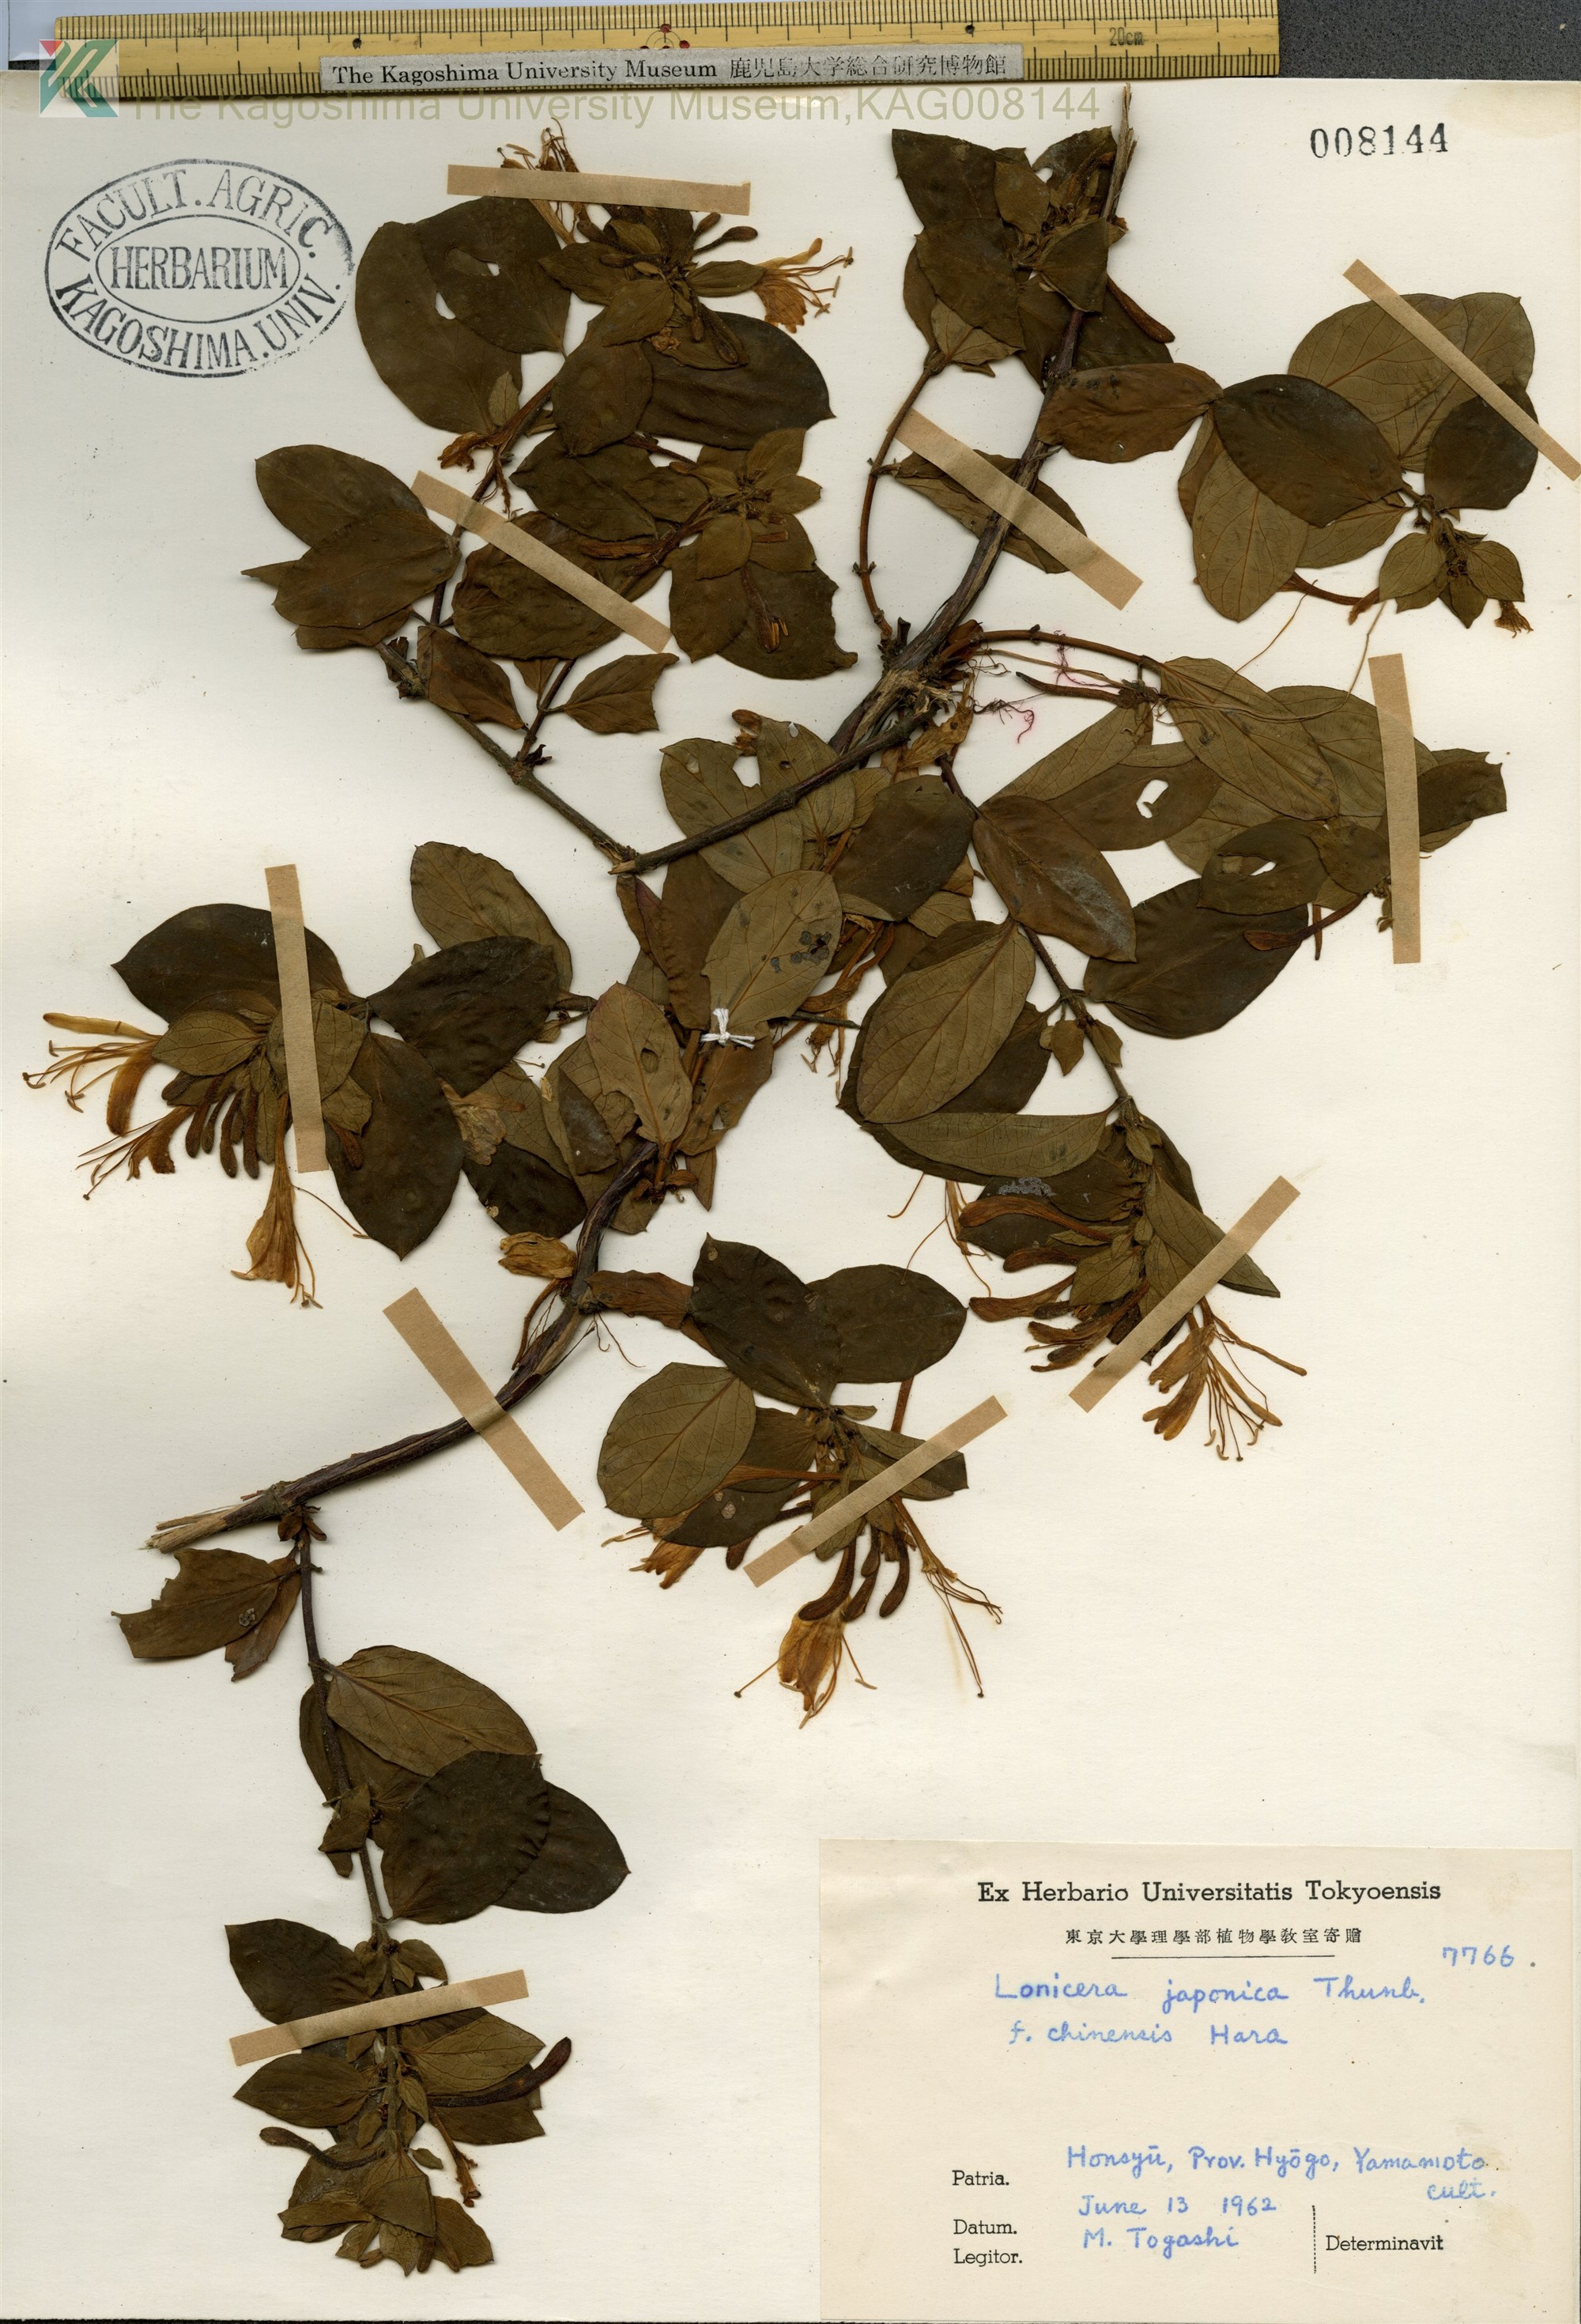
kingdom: Plantae
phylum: Tracheophyta
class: Magnoliopsida
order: Dipsacales
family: Caprifoliaceae
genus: Lonicera
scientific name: Lonicera japonica
